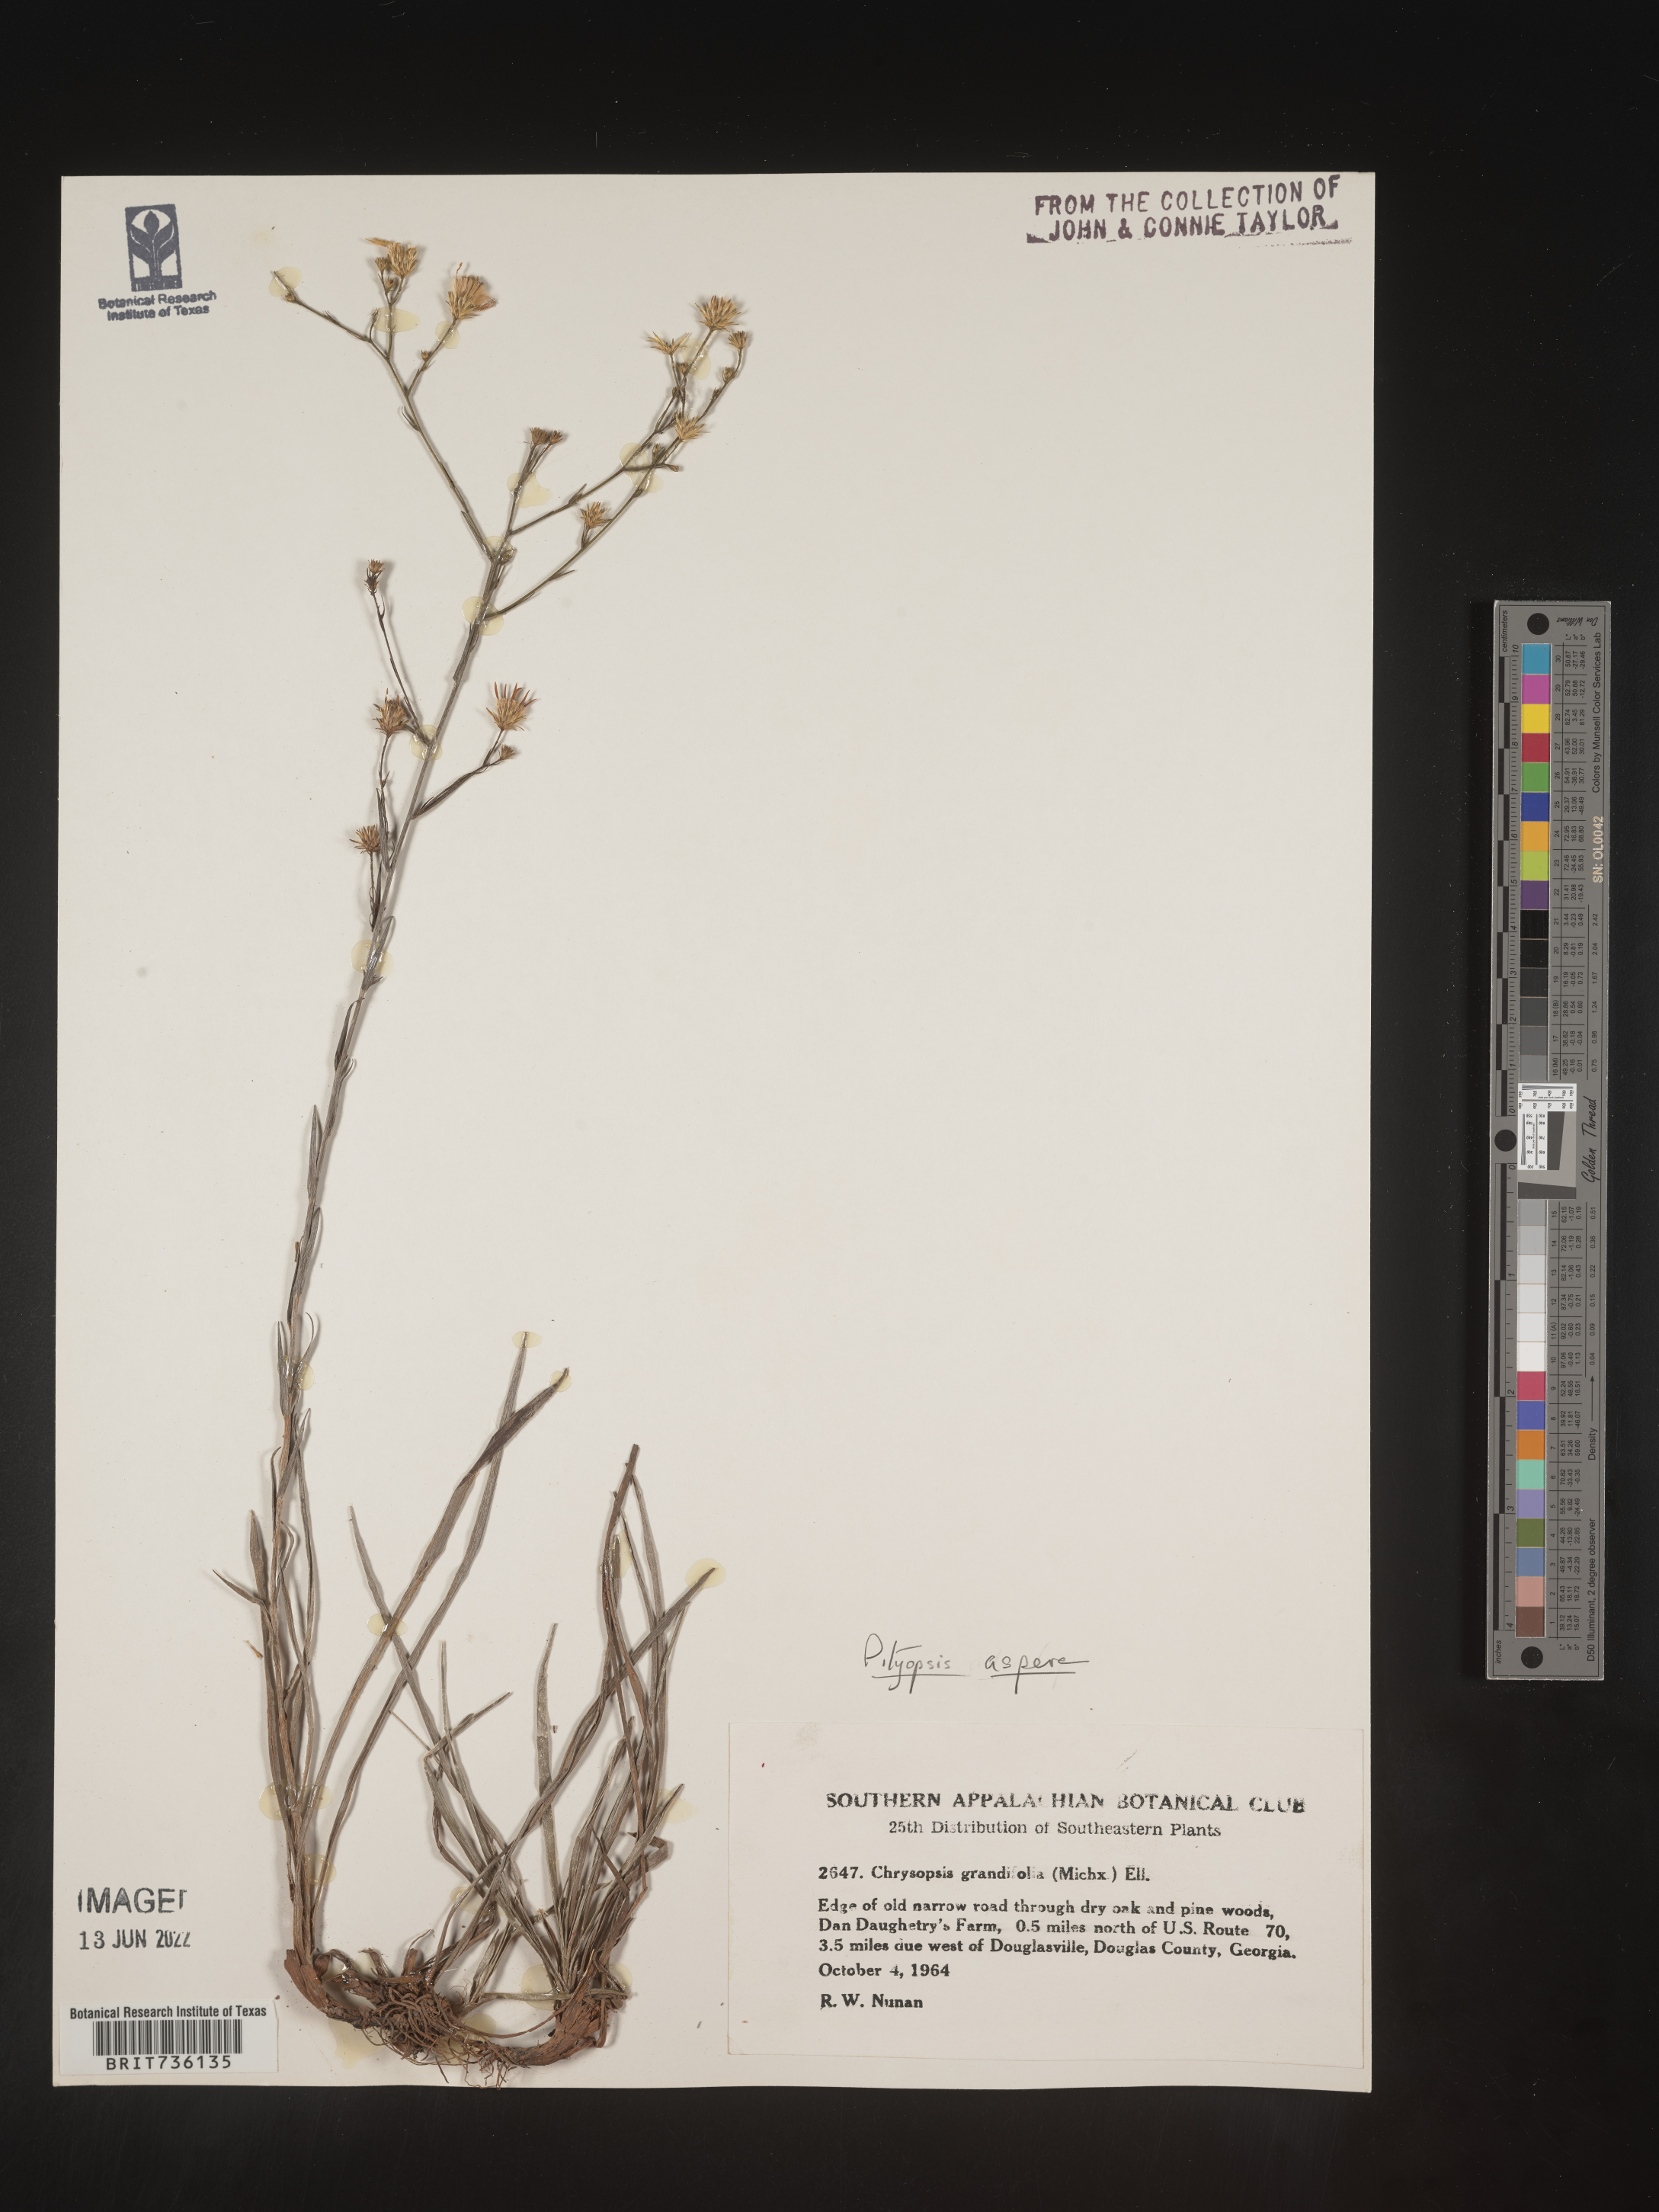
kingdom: Plantae
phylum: Tracheophyta
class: Magnoliopsida
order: Asterales
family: Asteraceae
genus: Pityopsis
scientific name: Pityopsis aspera
